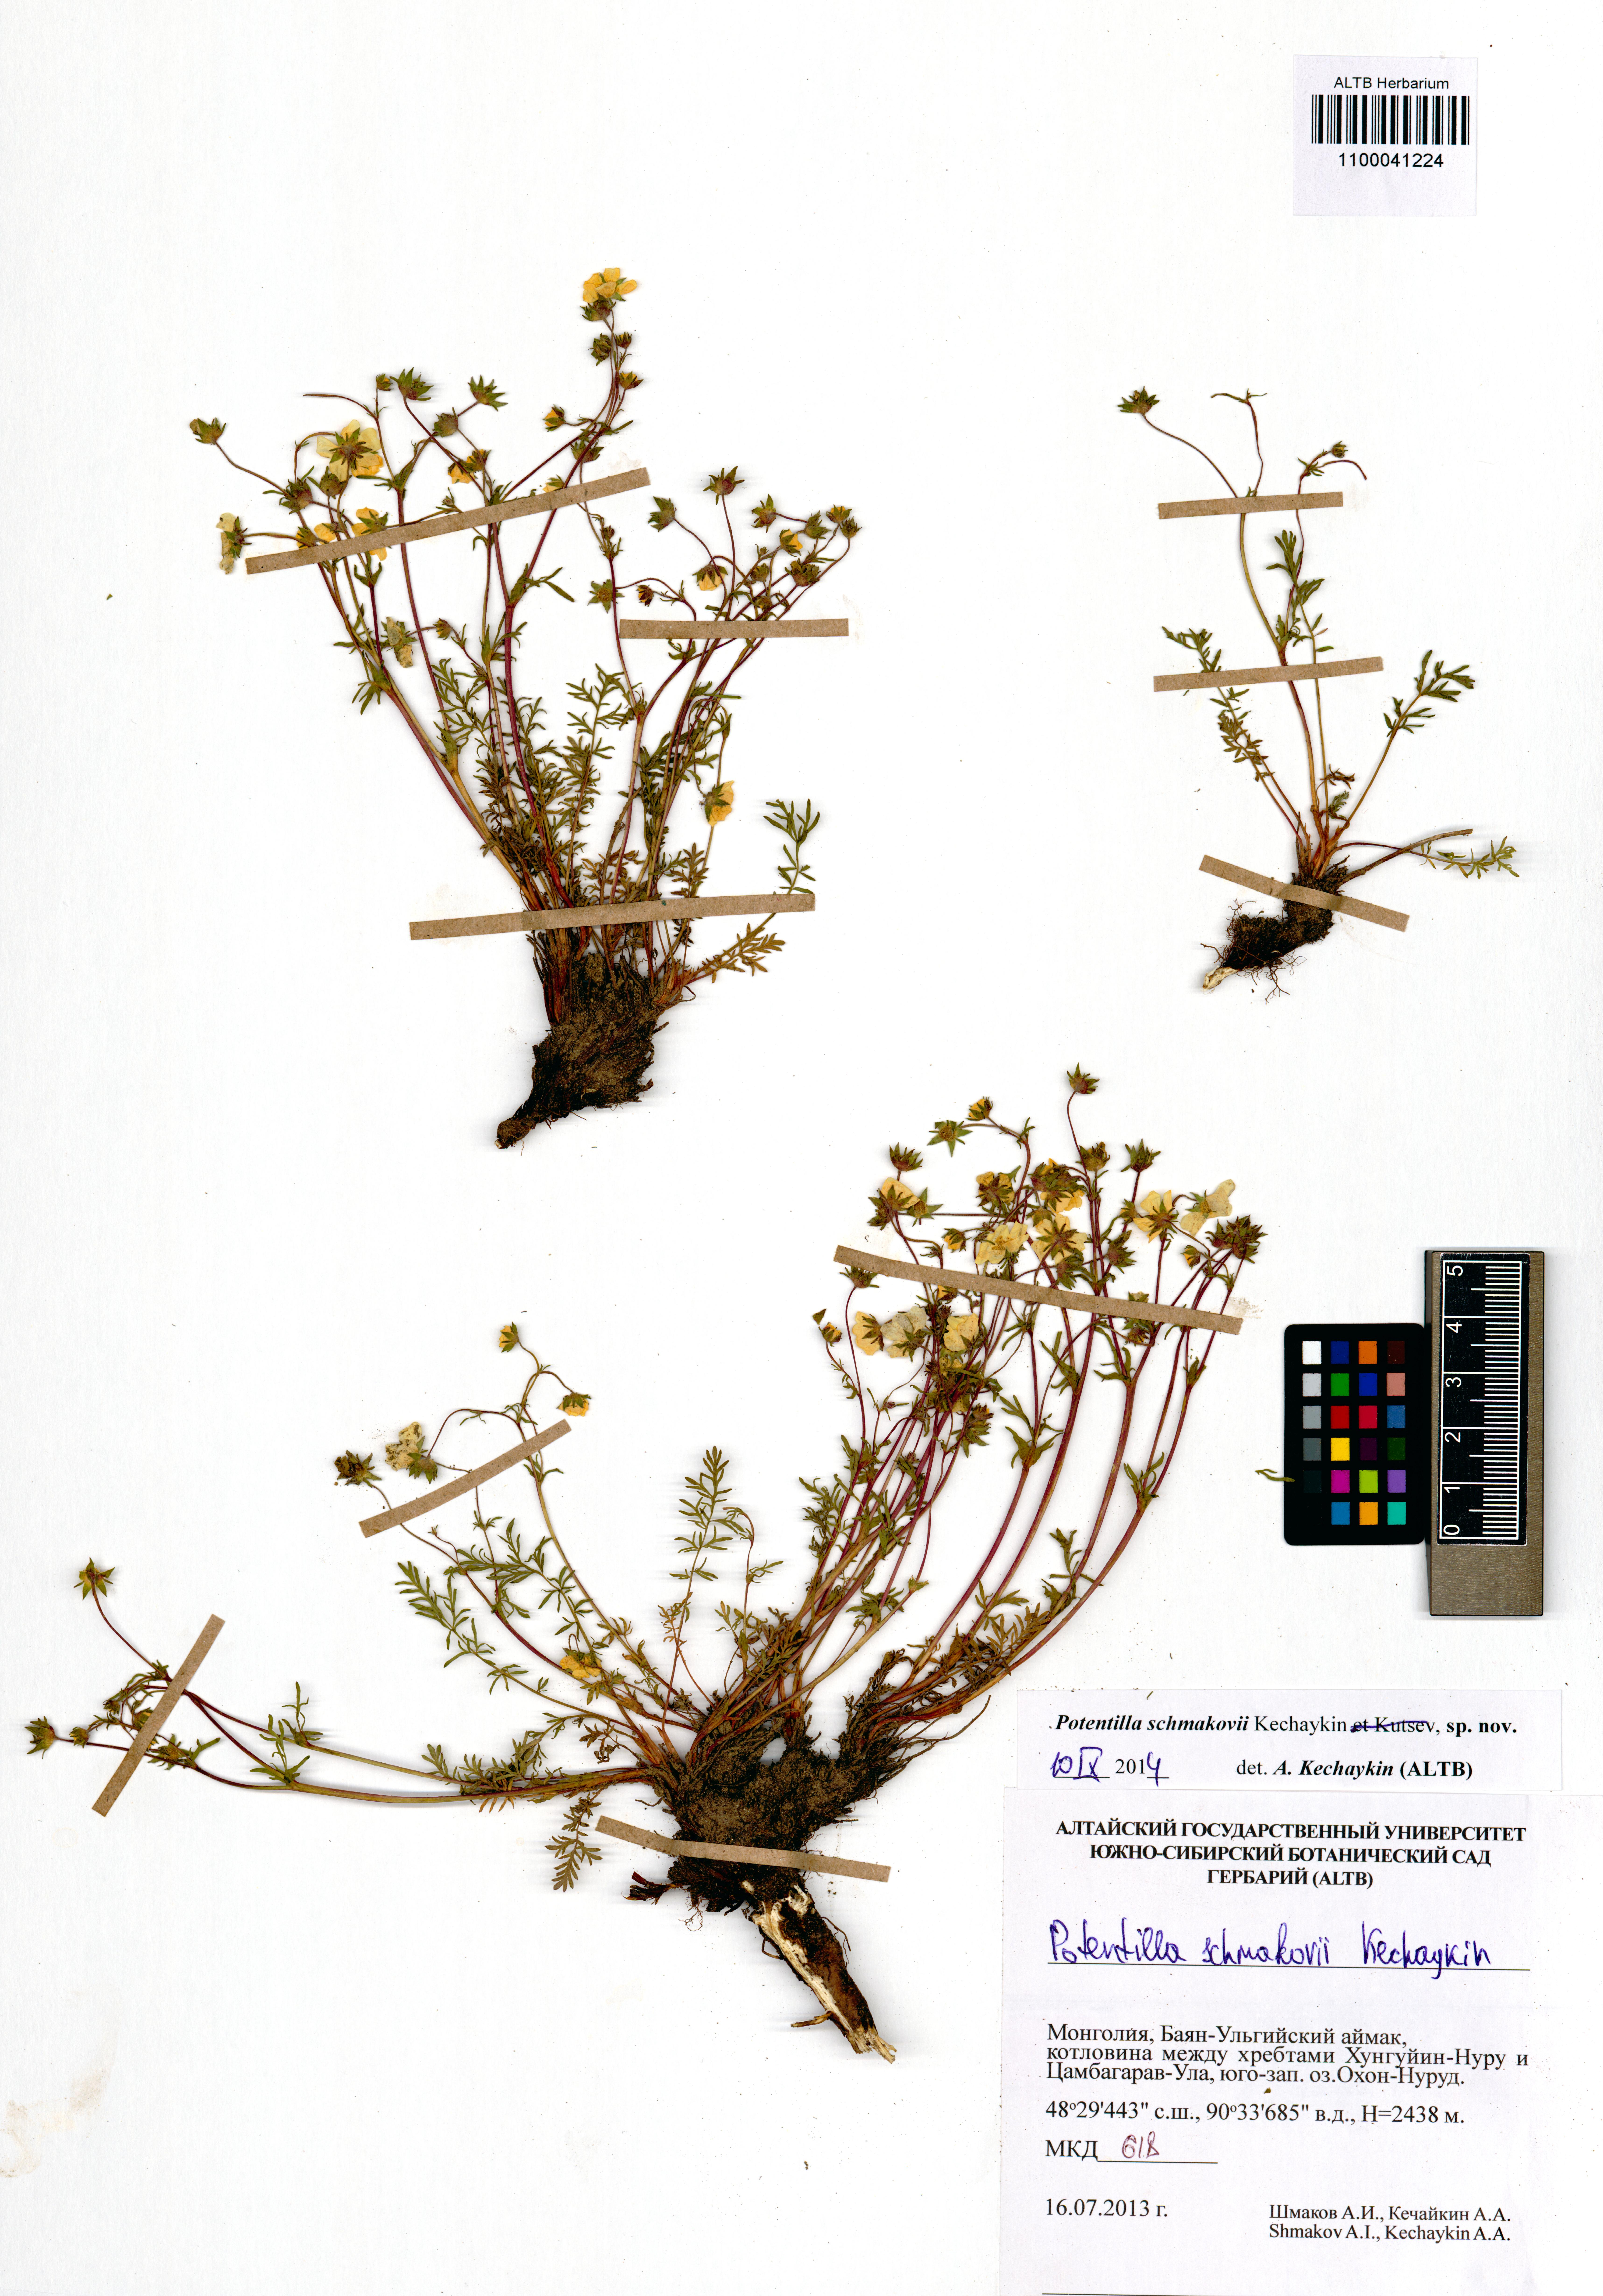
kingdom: Plantae
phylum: Tracheophyta
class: Magnoliopsida
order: Rosales
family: Rosaceae
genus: Potentilla
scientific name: Potentilla schmakovii
